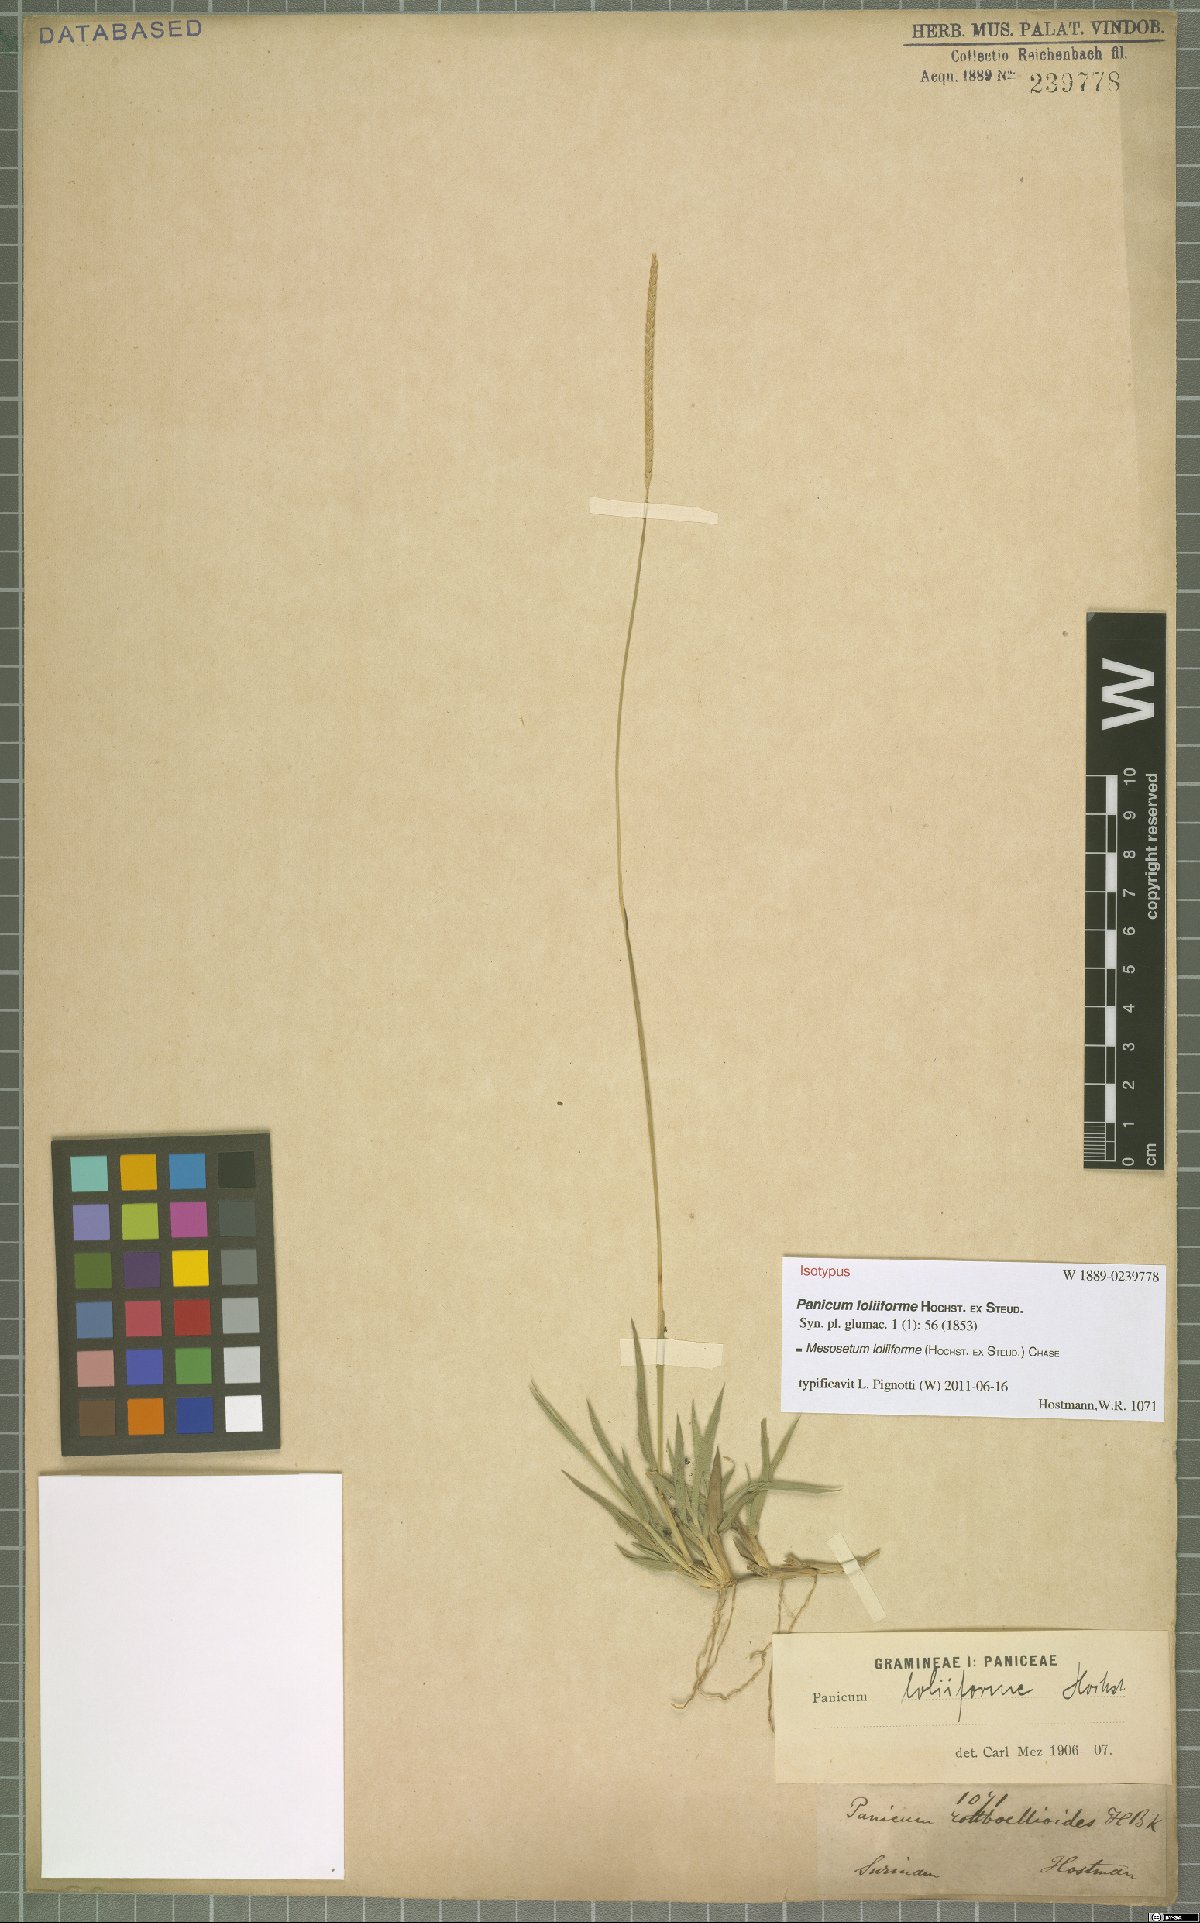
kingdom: Plantae
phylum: Tracheophyta
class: Liliopsida
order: Poales
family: Poaceae
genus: Mesosetum
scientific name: Mesosetum loliiforme
